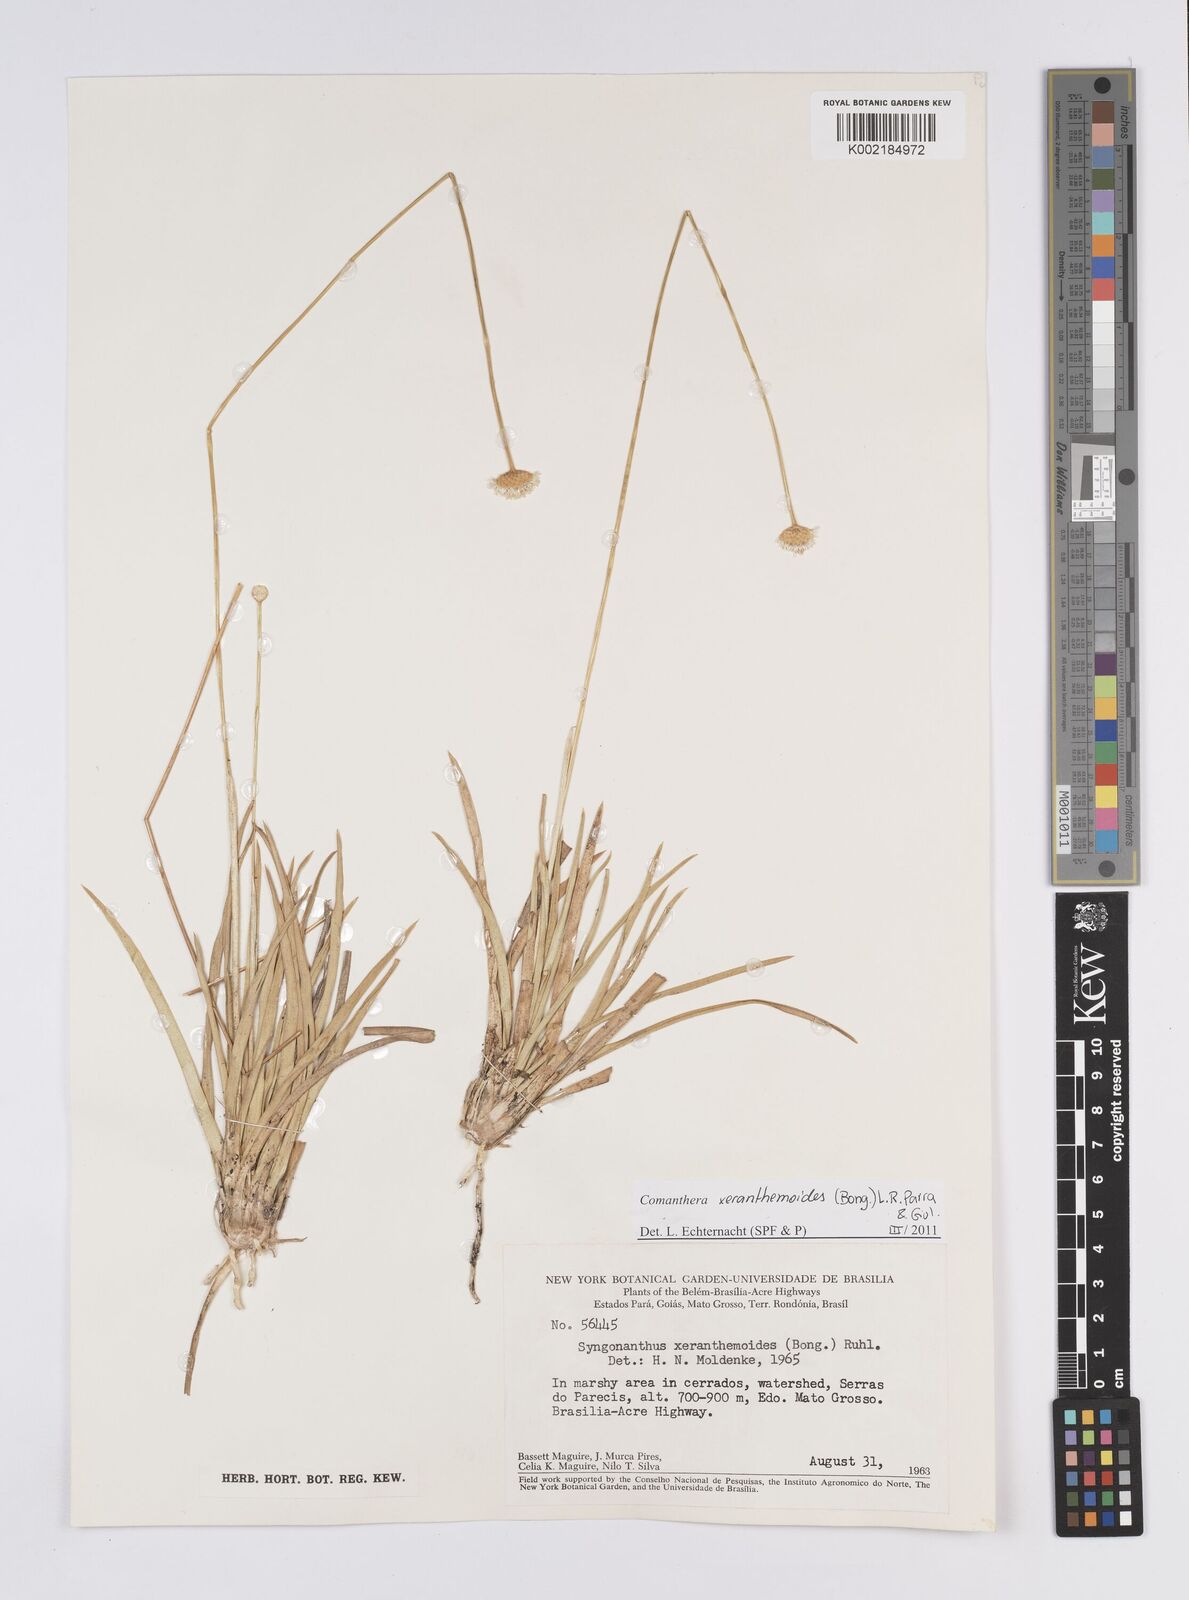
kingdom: Plantae
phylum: Tracheophyta
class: Liliopsida
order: Poales
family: Eriocaulaceae
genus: Comanthera
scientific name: Comanthera xeranthemoides
